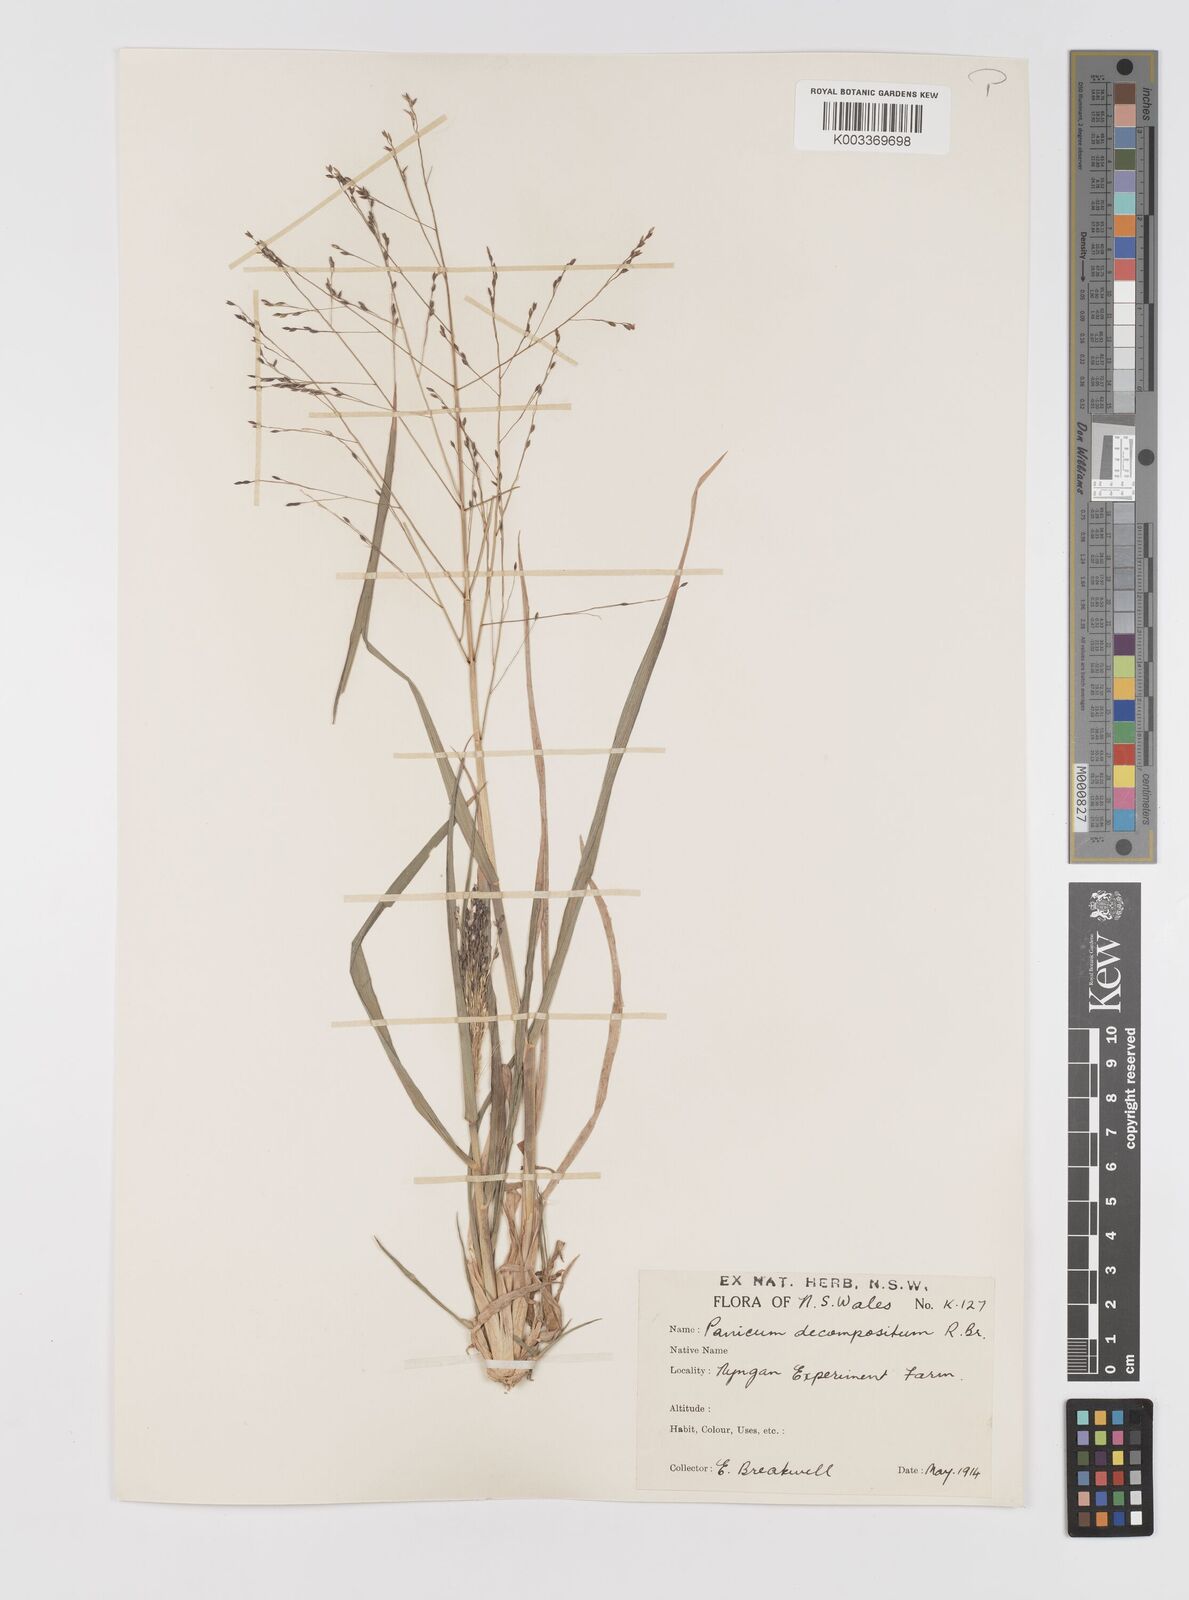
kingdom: Plantae
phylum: Tracheophyta
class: Liliopsida
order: Poales
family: Poaceae
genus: Panicum
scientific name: Panicum decompositum
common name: Australian millet
